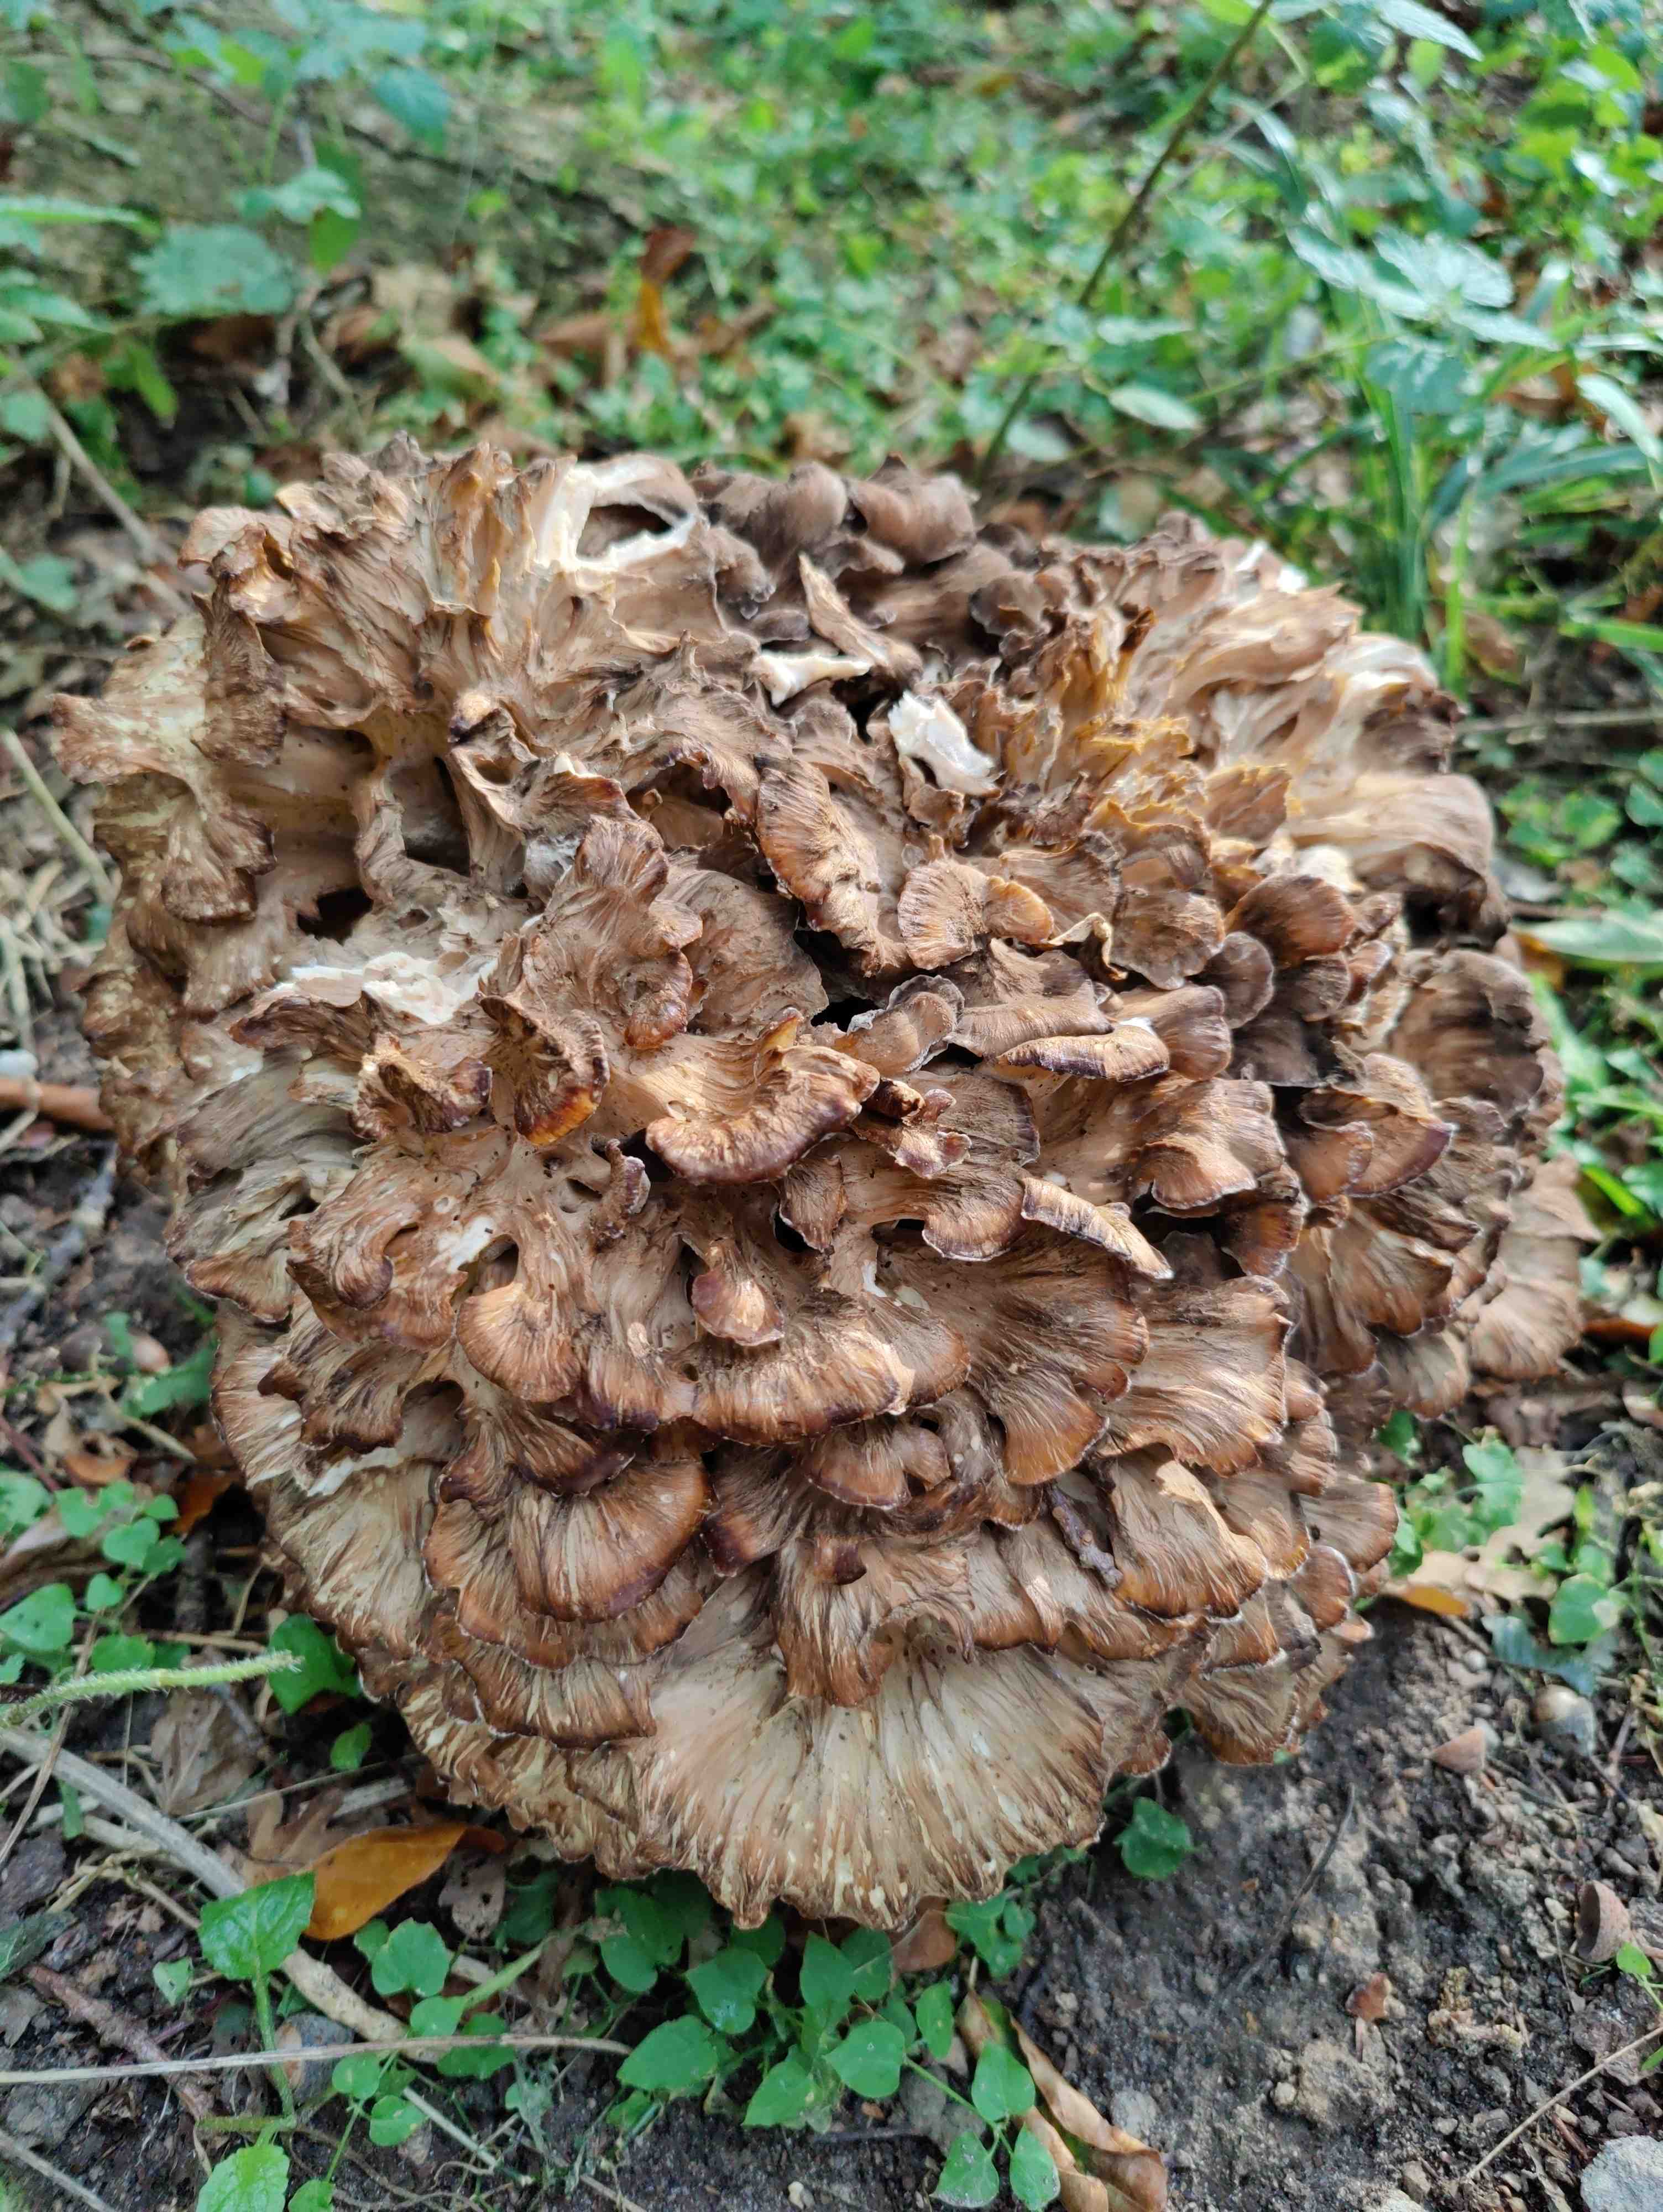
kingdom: Fungi
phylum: Basidiomycota
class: Agaricomycetes
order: Polyporales
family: Grifolaceae
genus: Grifola
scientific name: Grifola frondosa
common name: tueporesvamp
